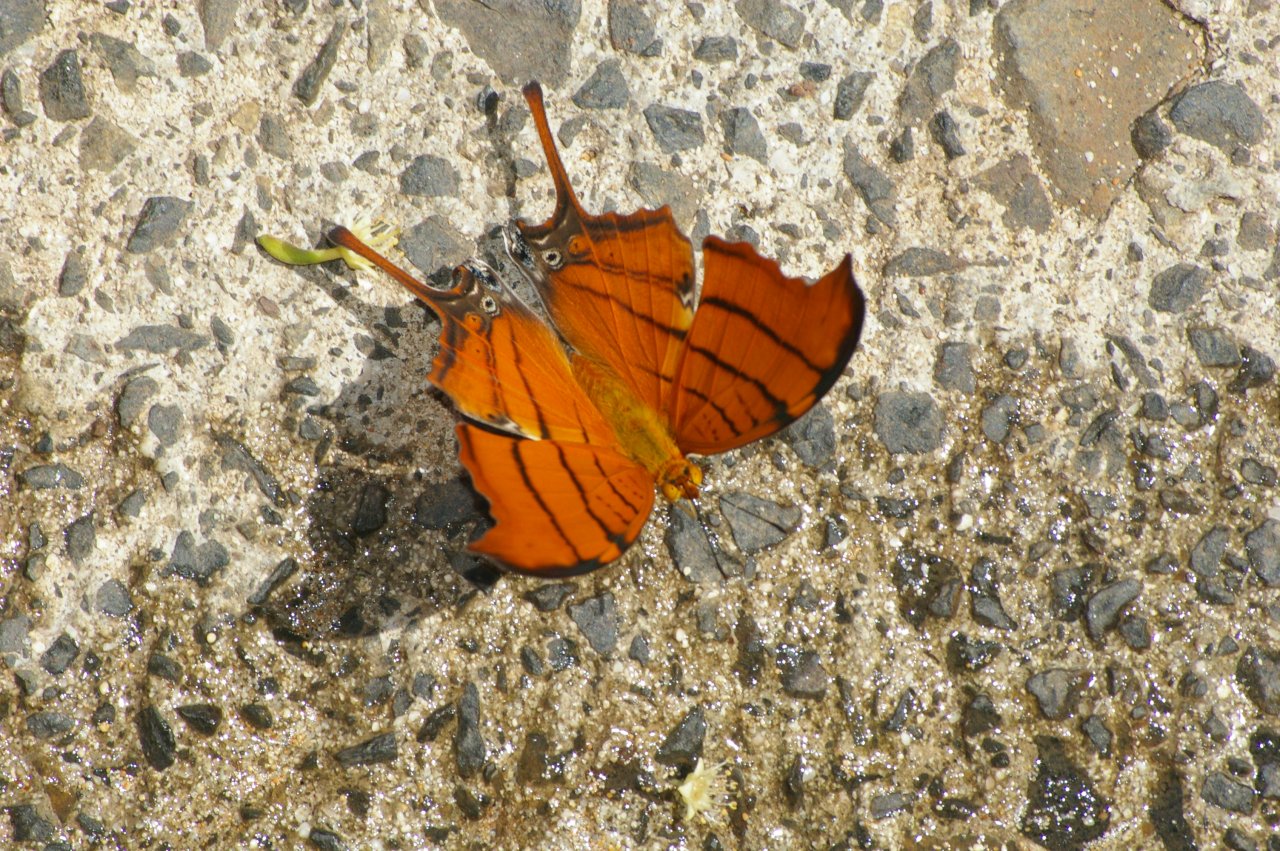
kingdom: Animalia
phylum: Arthropoda
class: Insecta
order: Lepidoptera
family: Nymphalidae
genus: Marpesia
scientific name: Marpesia petreus
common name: Ruddy Daggerwing
